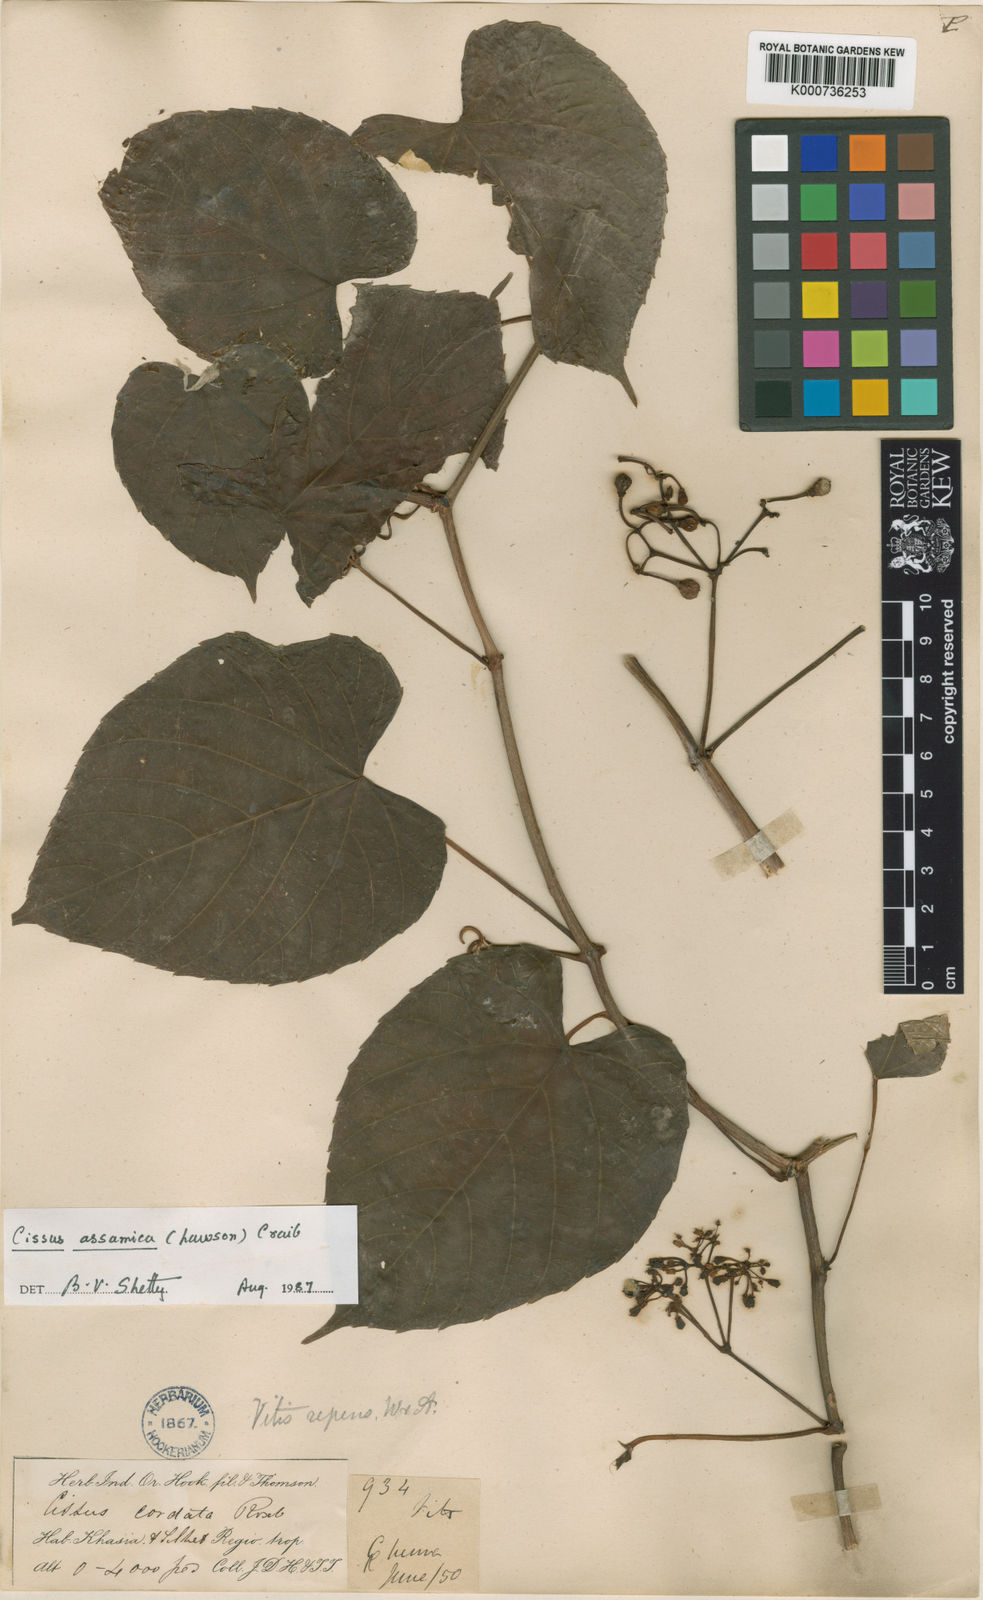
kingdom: Plantae
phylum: Tracheophyta
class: Magnoliopsida
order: Vitales
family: Vitaceae
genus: Cissus
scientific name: Cissus assamica
